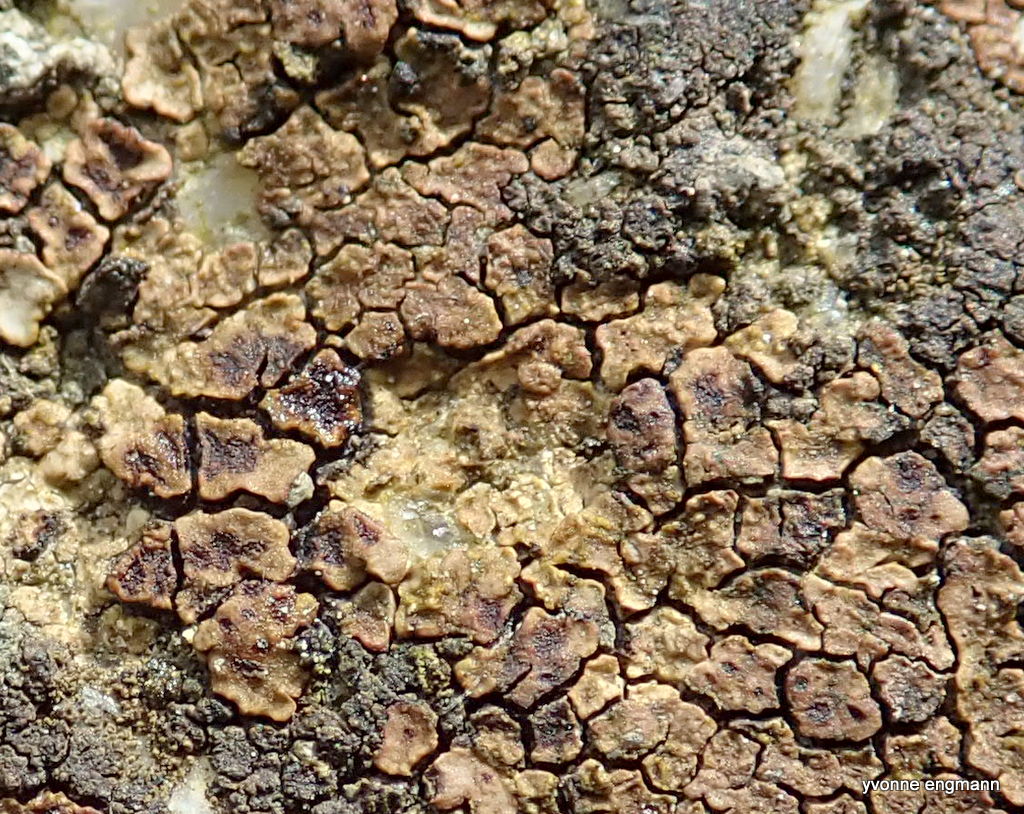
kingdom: Fungi
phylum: Ascomycota
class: Lecanoromycetes
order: Acarosporales
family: Acarosporaceae
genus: Acarospora
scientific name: Acarospora fuscata
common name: brun småsporelav
